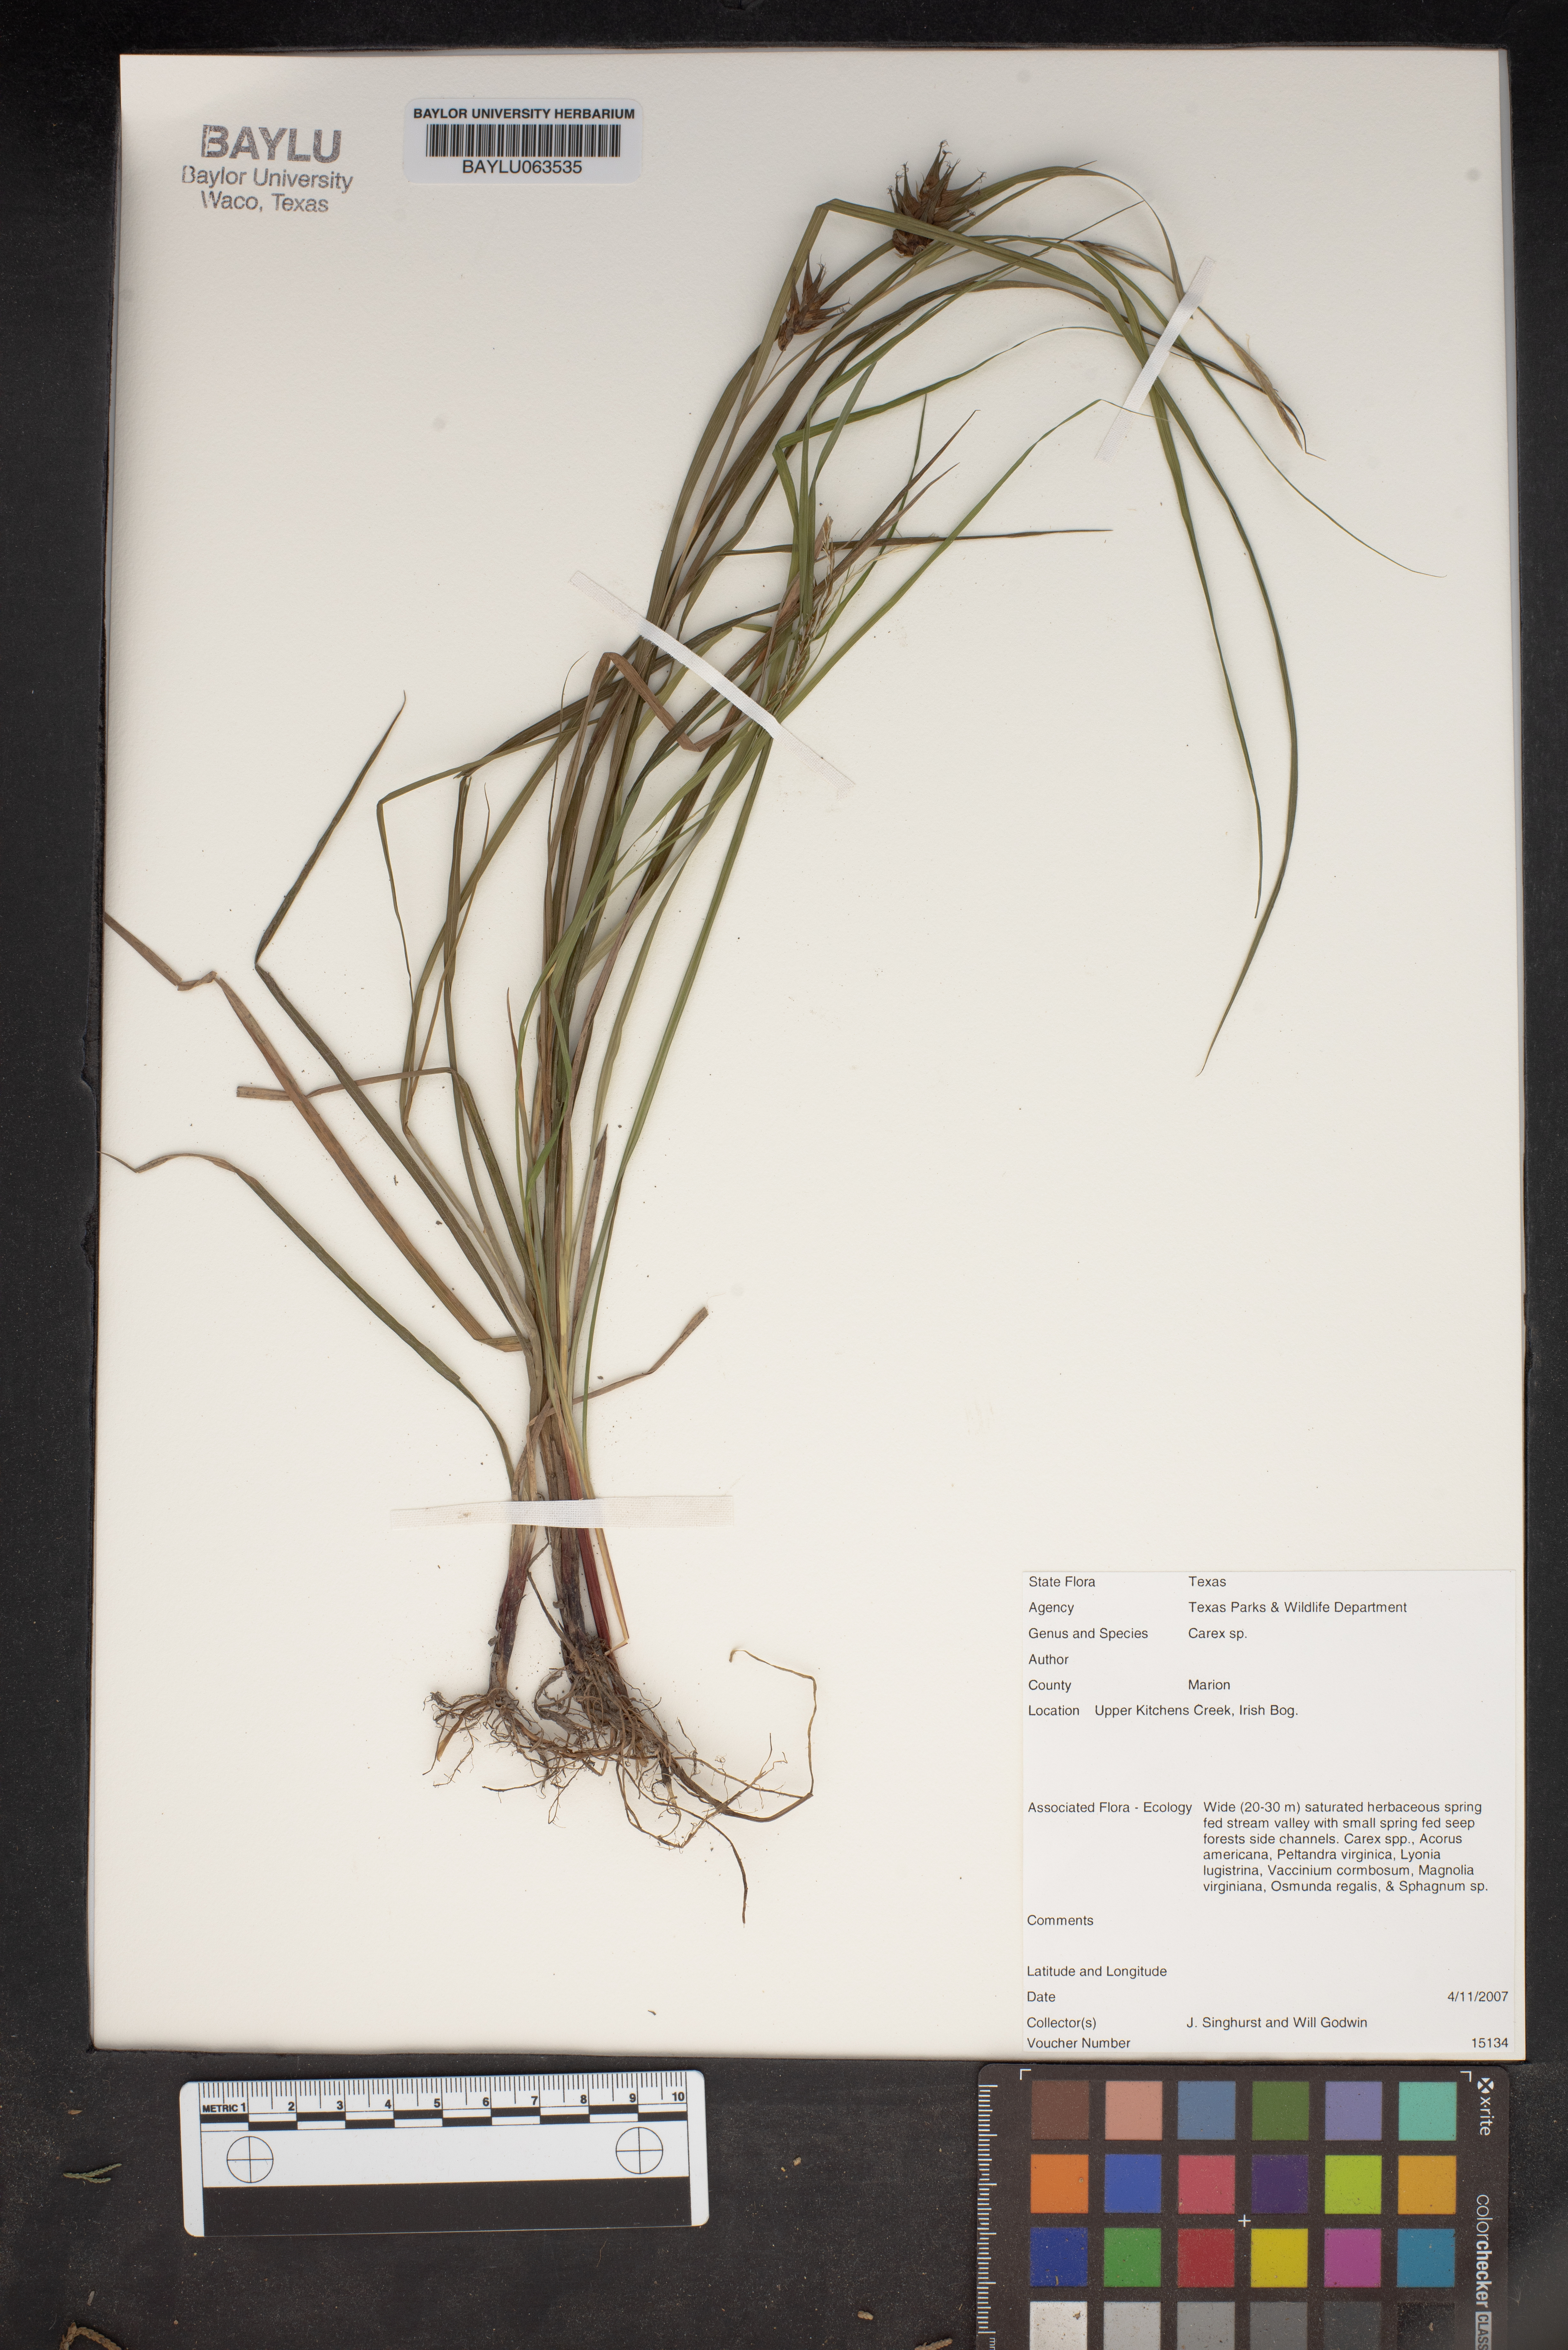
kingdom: Plantae
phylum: Tracheophyta
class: Liliopsida
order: Poales
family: Cyperaceae
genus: Carex
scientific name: Carex
